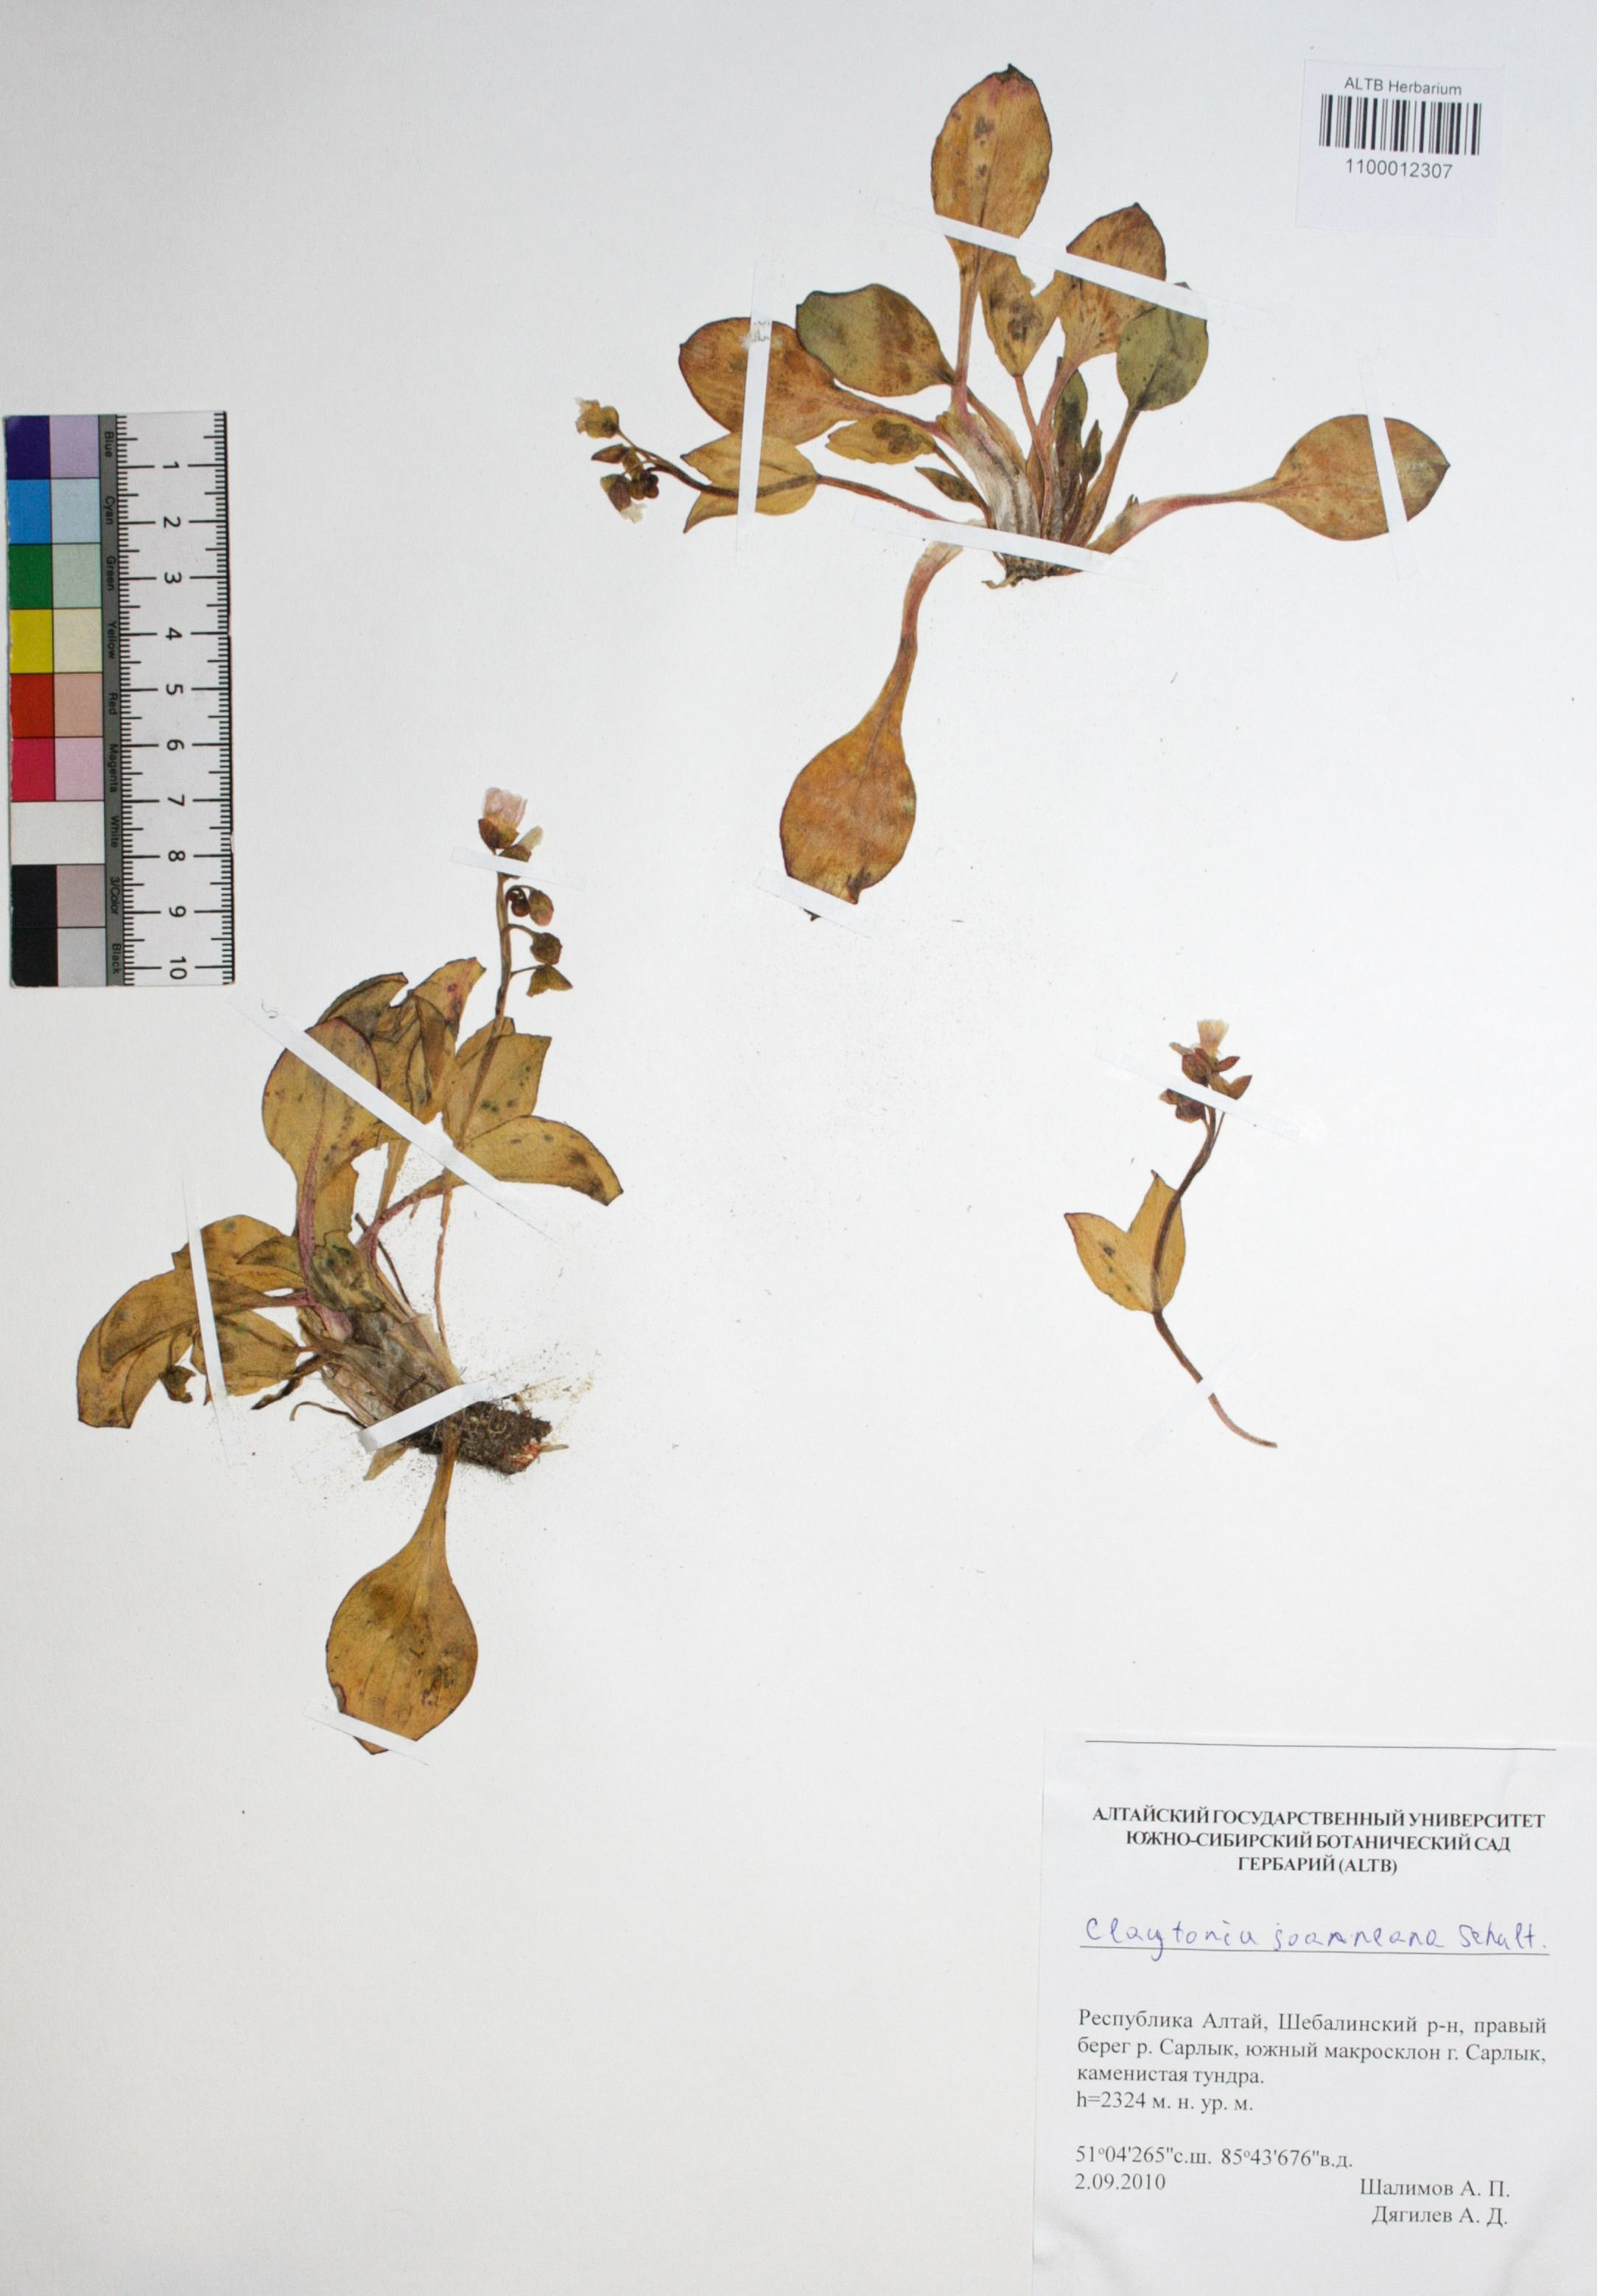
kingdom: Plantae
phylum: Tracheophyta
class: Magnoliopsida
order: Caryophyllales
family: Montiaceae
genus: Claytonia
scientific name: Claytonia joanneana
